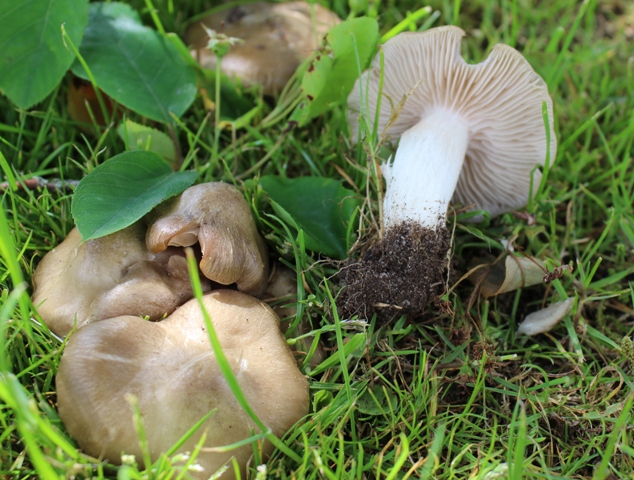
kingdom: Fungi
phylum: Basidiomycota
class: Agaricomycetes
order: Agaricales
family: Entolomataceae
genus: Entoloma
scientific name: Entoloma clypeatum
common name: flammet rødblad
